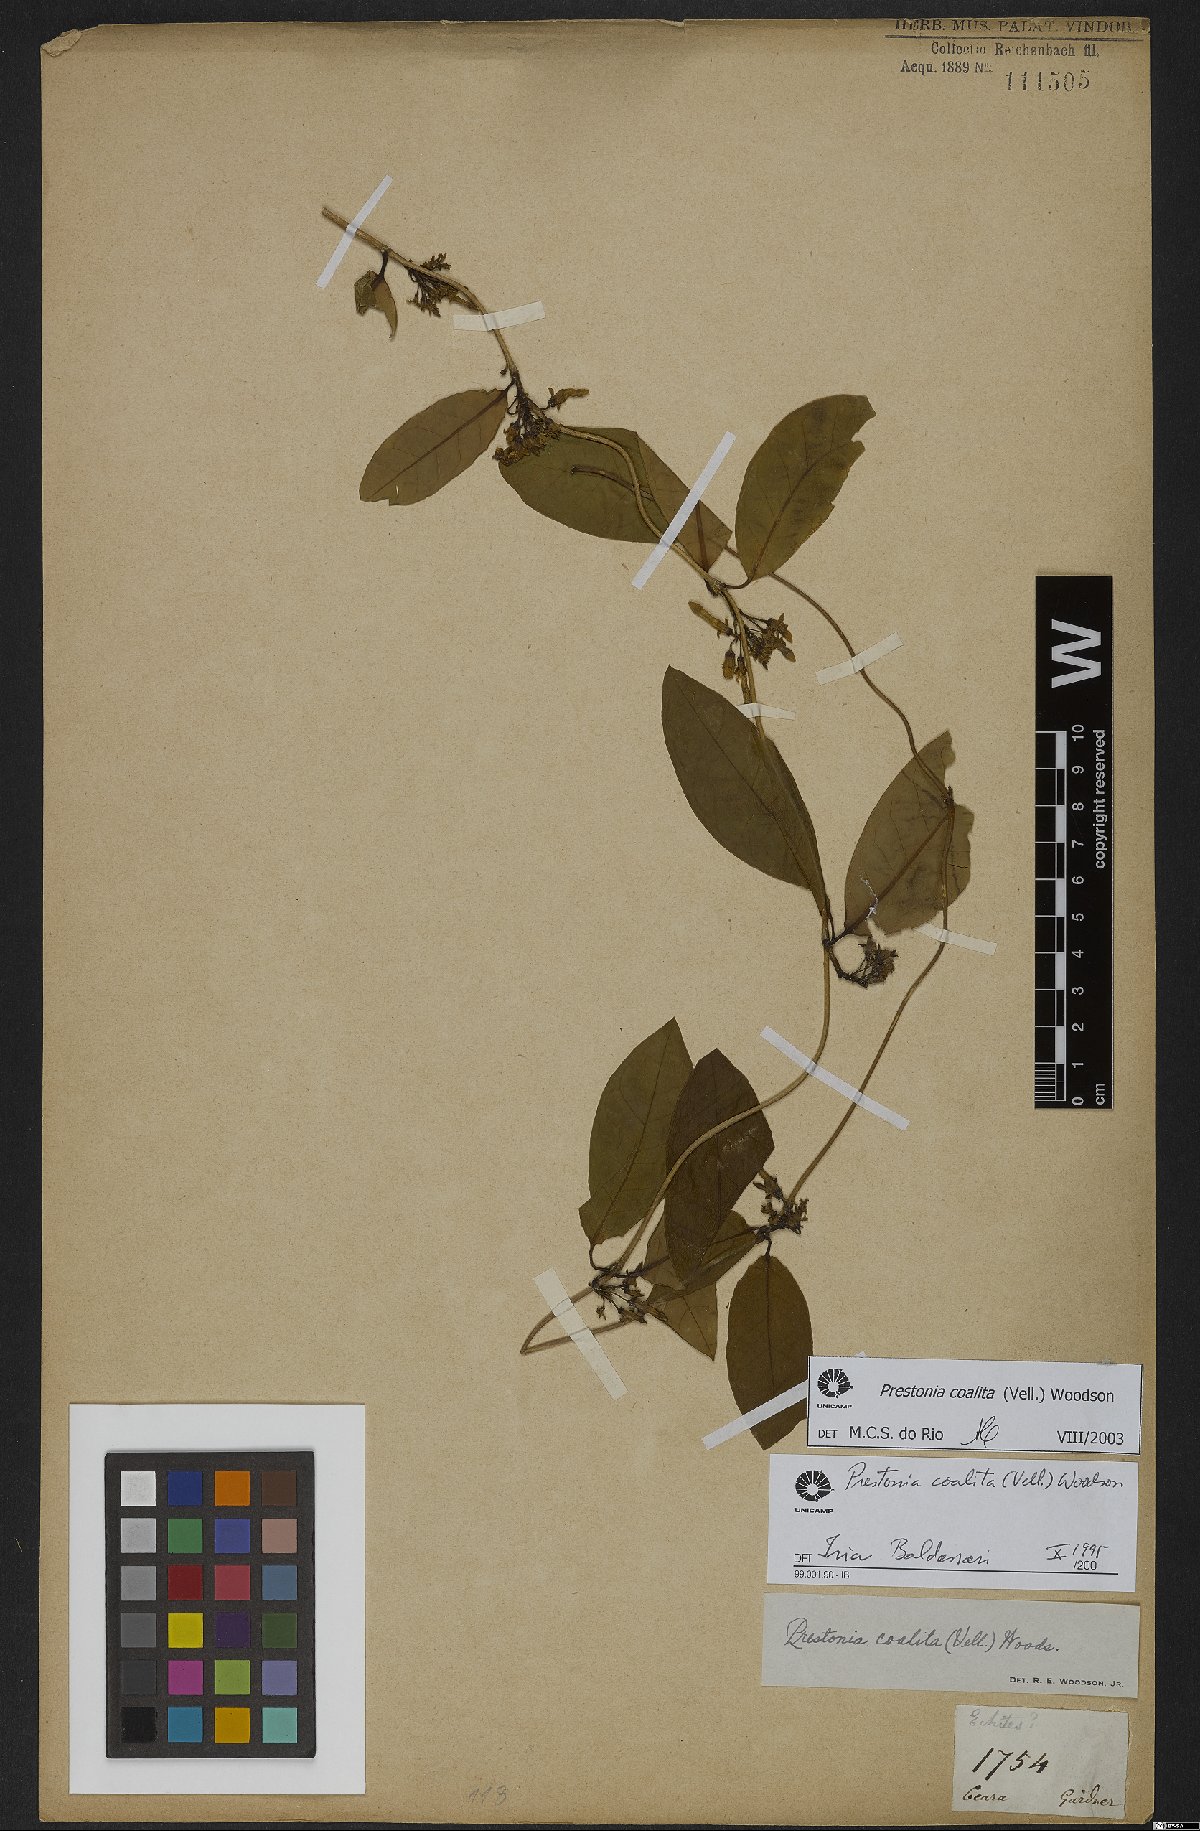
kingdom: Plantae
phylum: Tracheophyta
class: Magnoliopsida
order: Gentianales
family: Apocynaceae
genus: Prestonia
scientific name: Prestonia coalita
